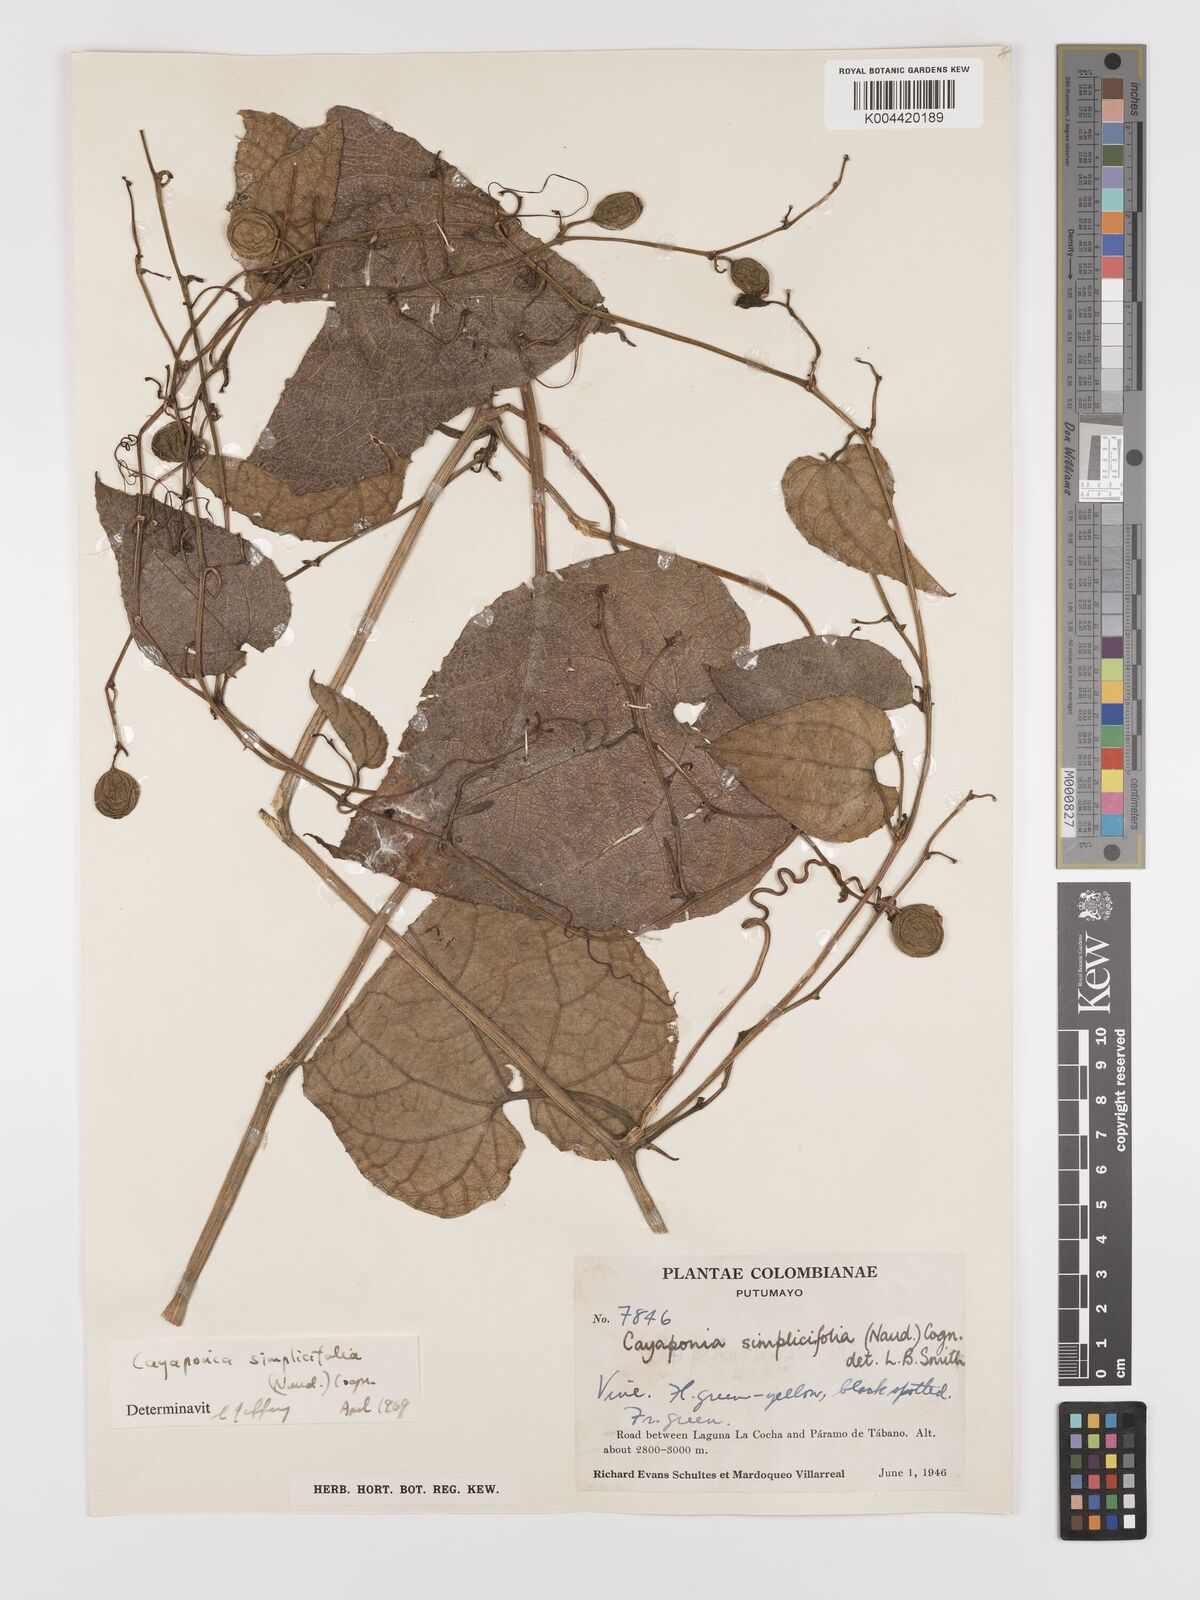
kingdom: Plantae
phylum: Tracheophyta
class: Magnoliopsida
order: Cucurbitales
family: Cucurbitaceae
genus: Cayaponia
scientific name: Cayaponia simplicifolia
